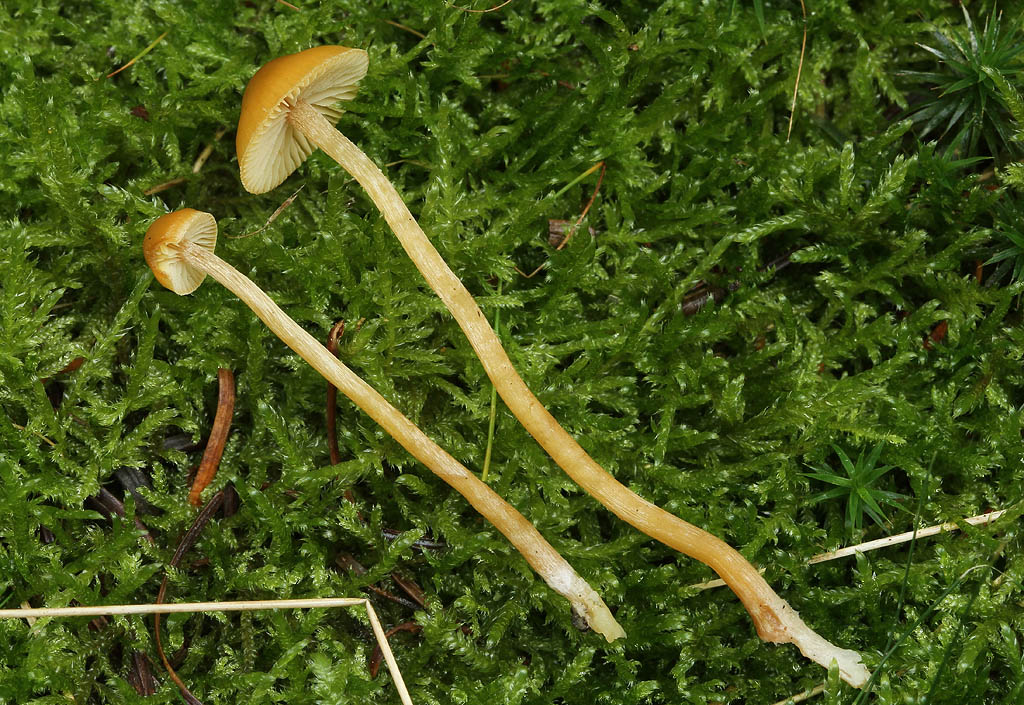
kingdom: Fungi
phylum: Basidiomycota
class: Agaricomycetes
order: Agaricales
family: Hymenogastraceae
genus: Galerina
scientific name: Galerina pumila
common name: honninggul hjelmhat
